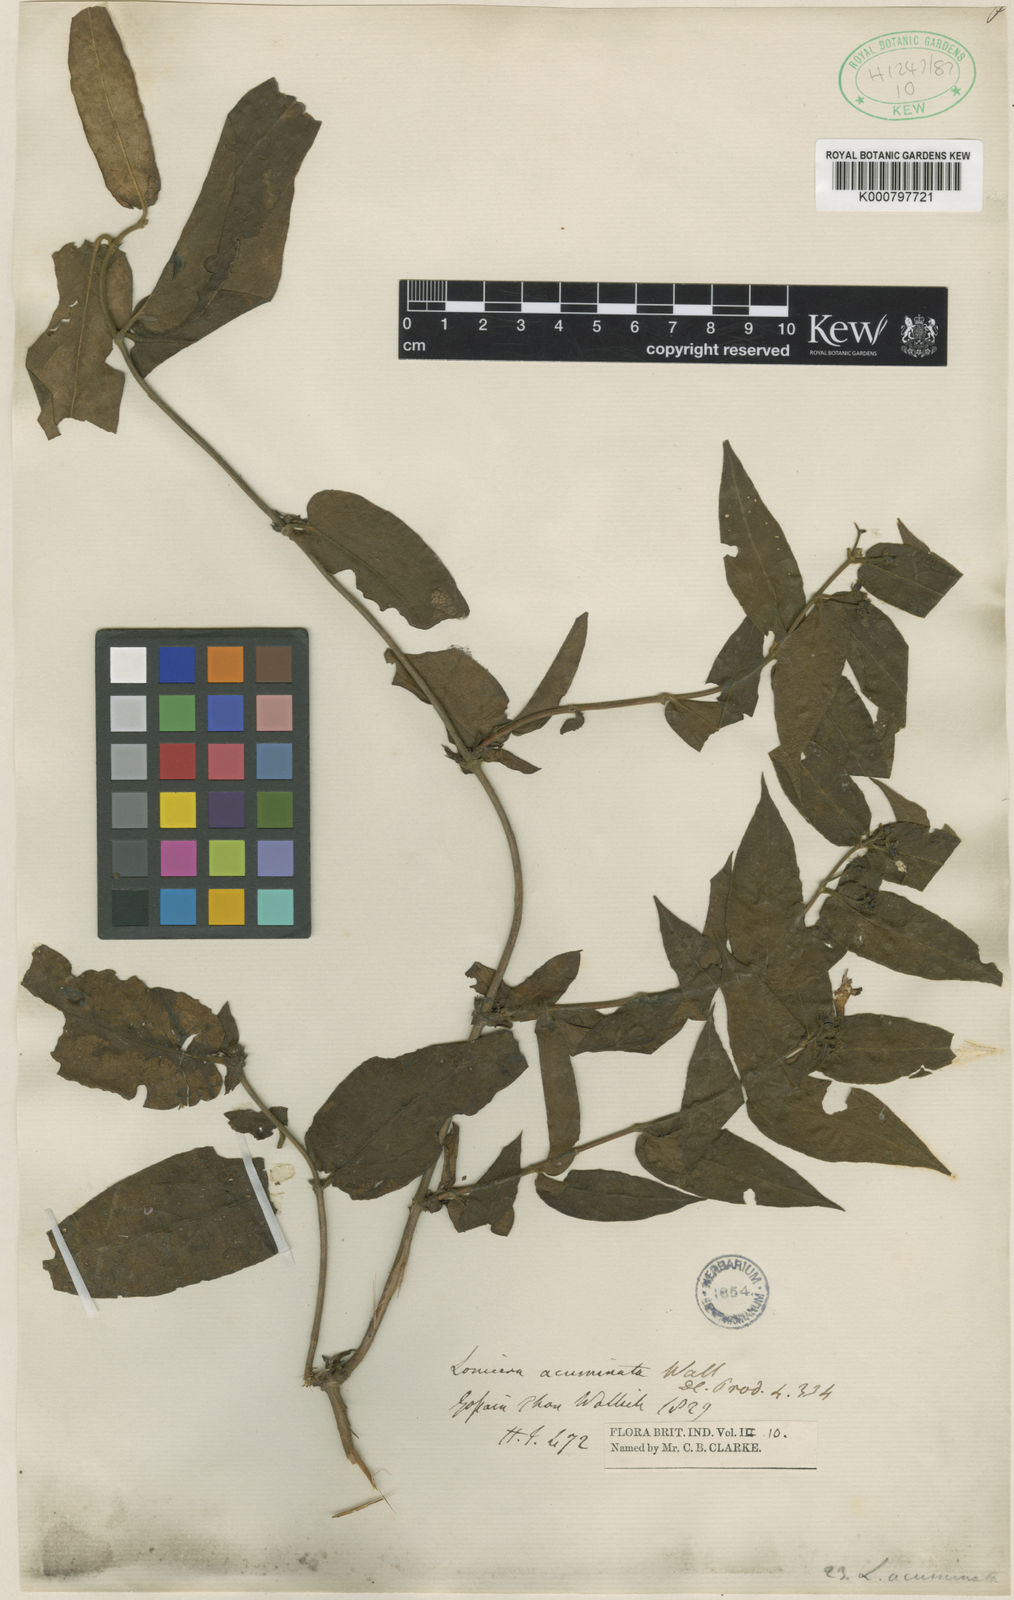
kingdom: Plantae
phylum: Tracheophyta
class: Magnoliopsida
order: Dipsacales
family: Caprifoliaceae
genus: Lonicera
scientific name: Lonicera acuminata
